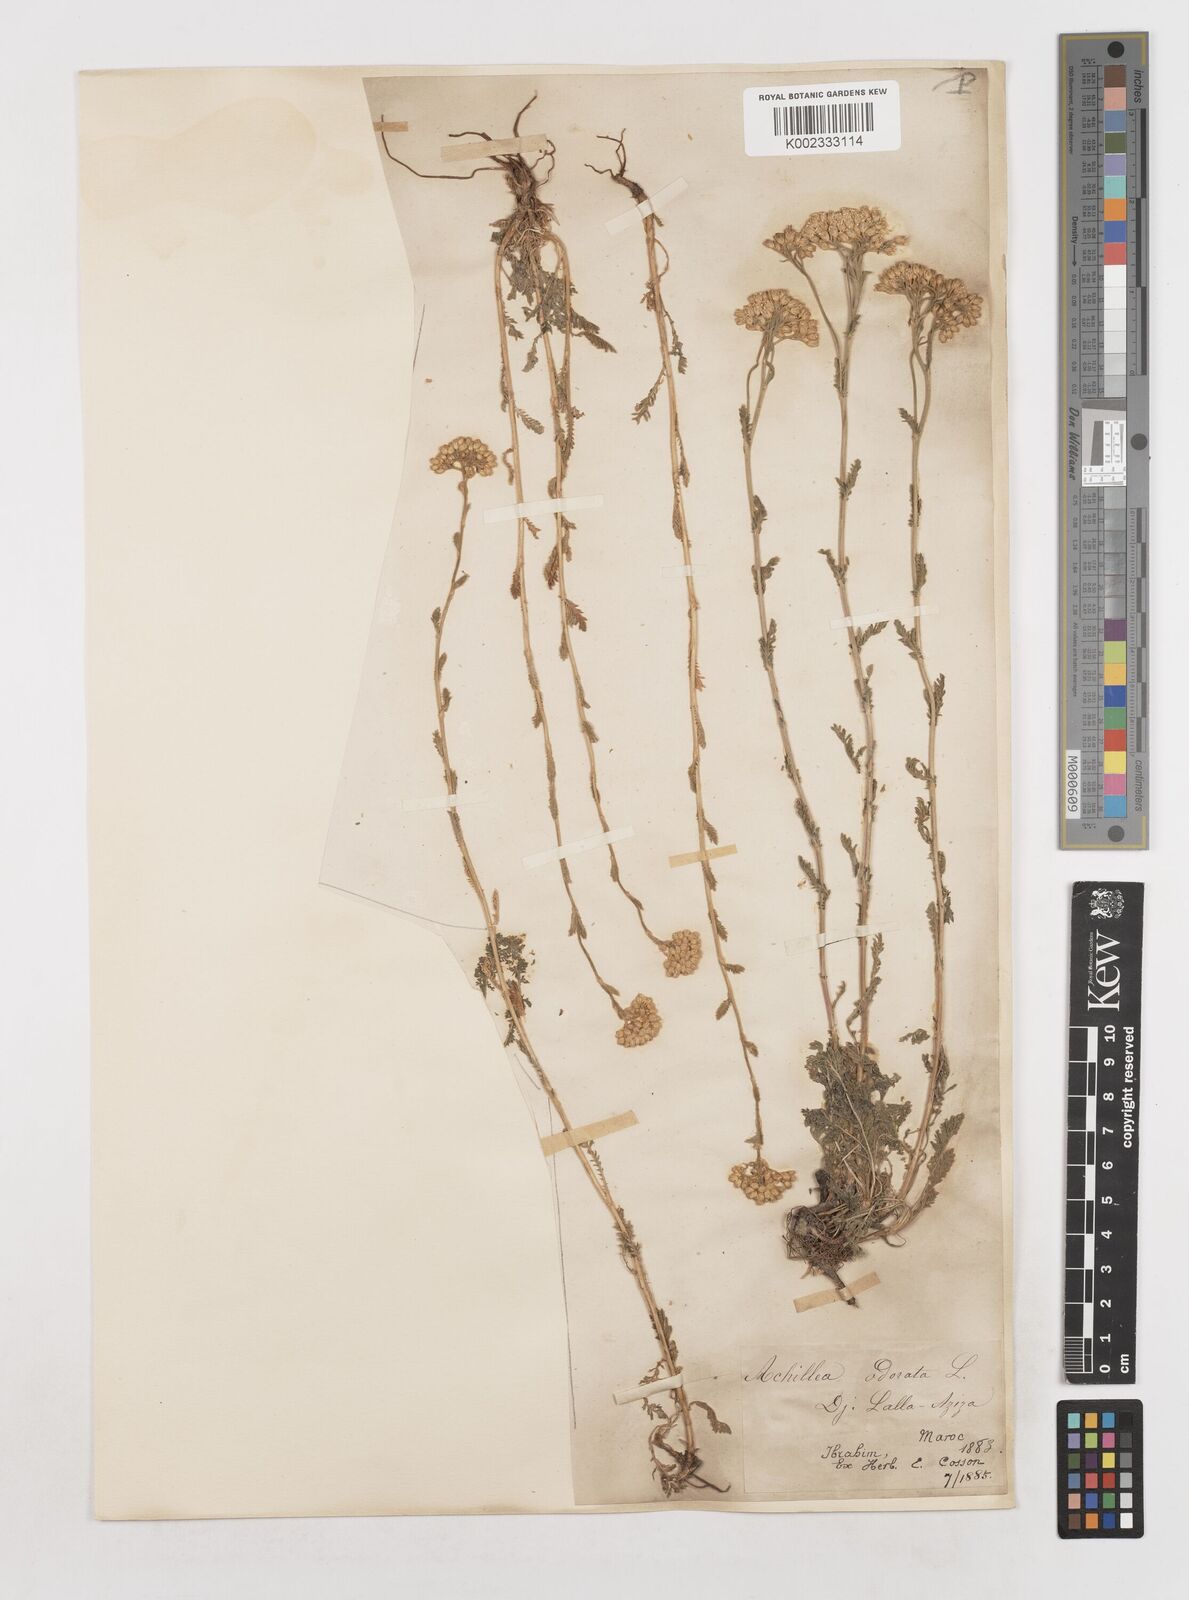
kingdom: Plantae
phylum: Tracheophyta
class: Magnoliopsida
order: Asterales
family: Asteraceae
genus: Achillea
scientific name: Achillea odorata
